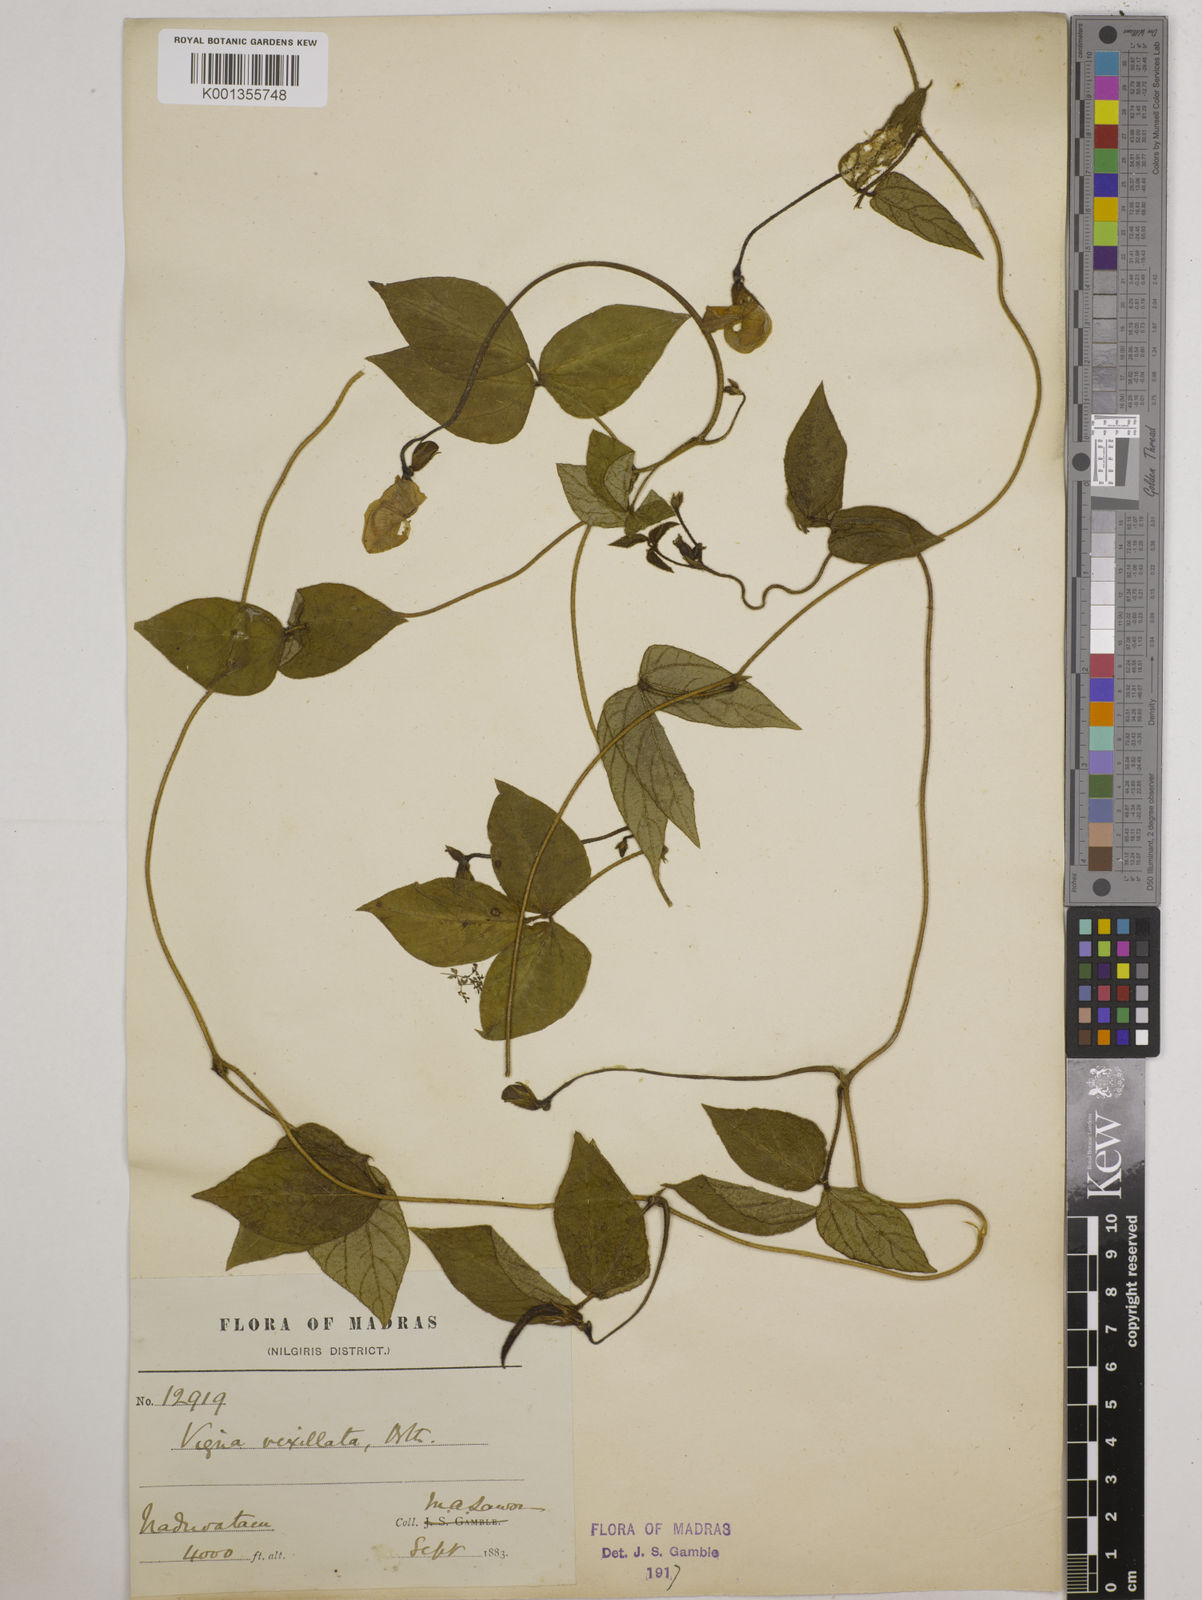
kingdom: Plantae
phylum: Tracheophyta
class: Magnoliopsida
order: Fabales
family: Fabaceae
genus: Vigna
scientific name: Vigna vexillata
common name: Zombi pea
